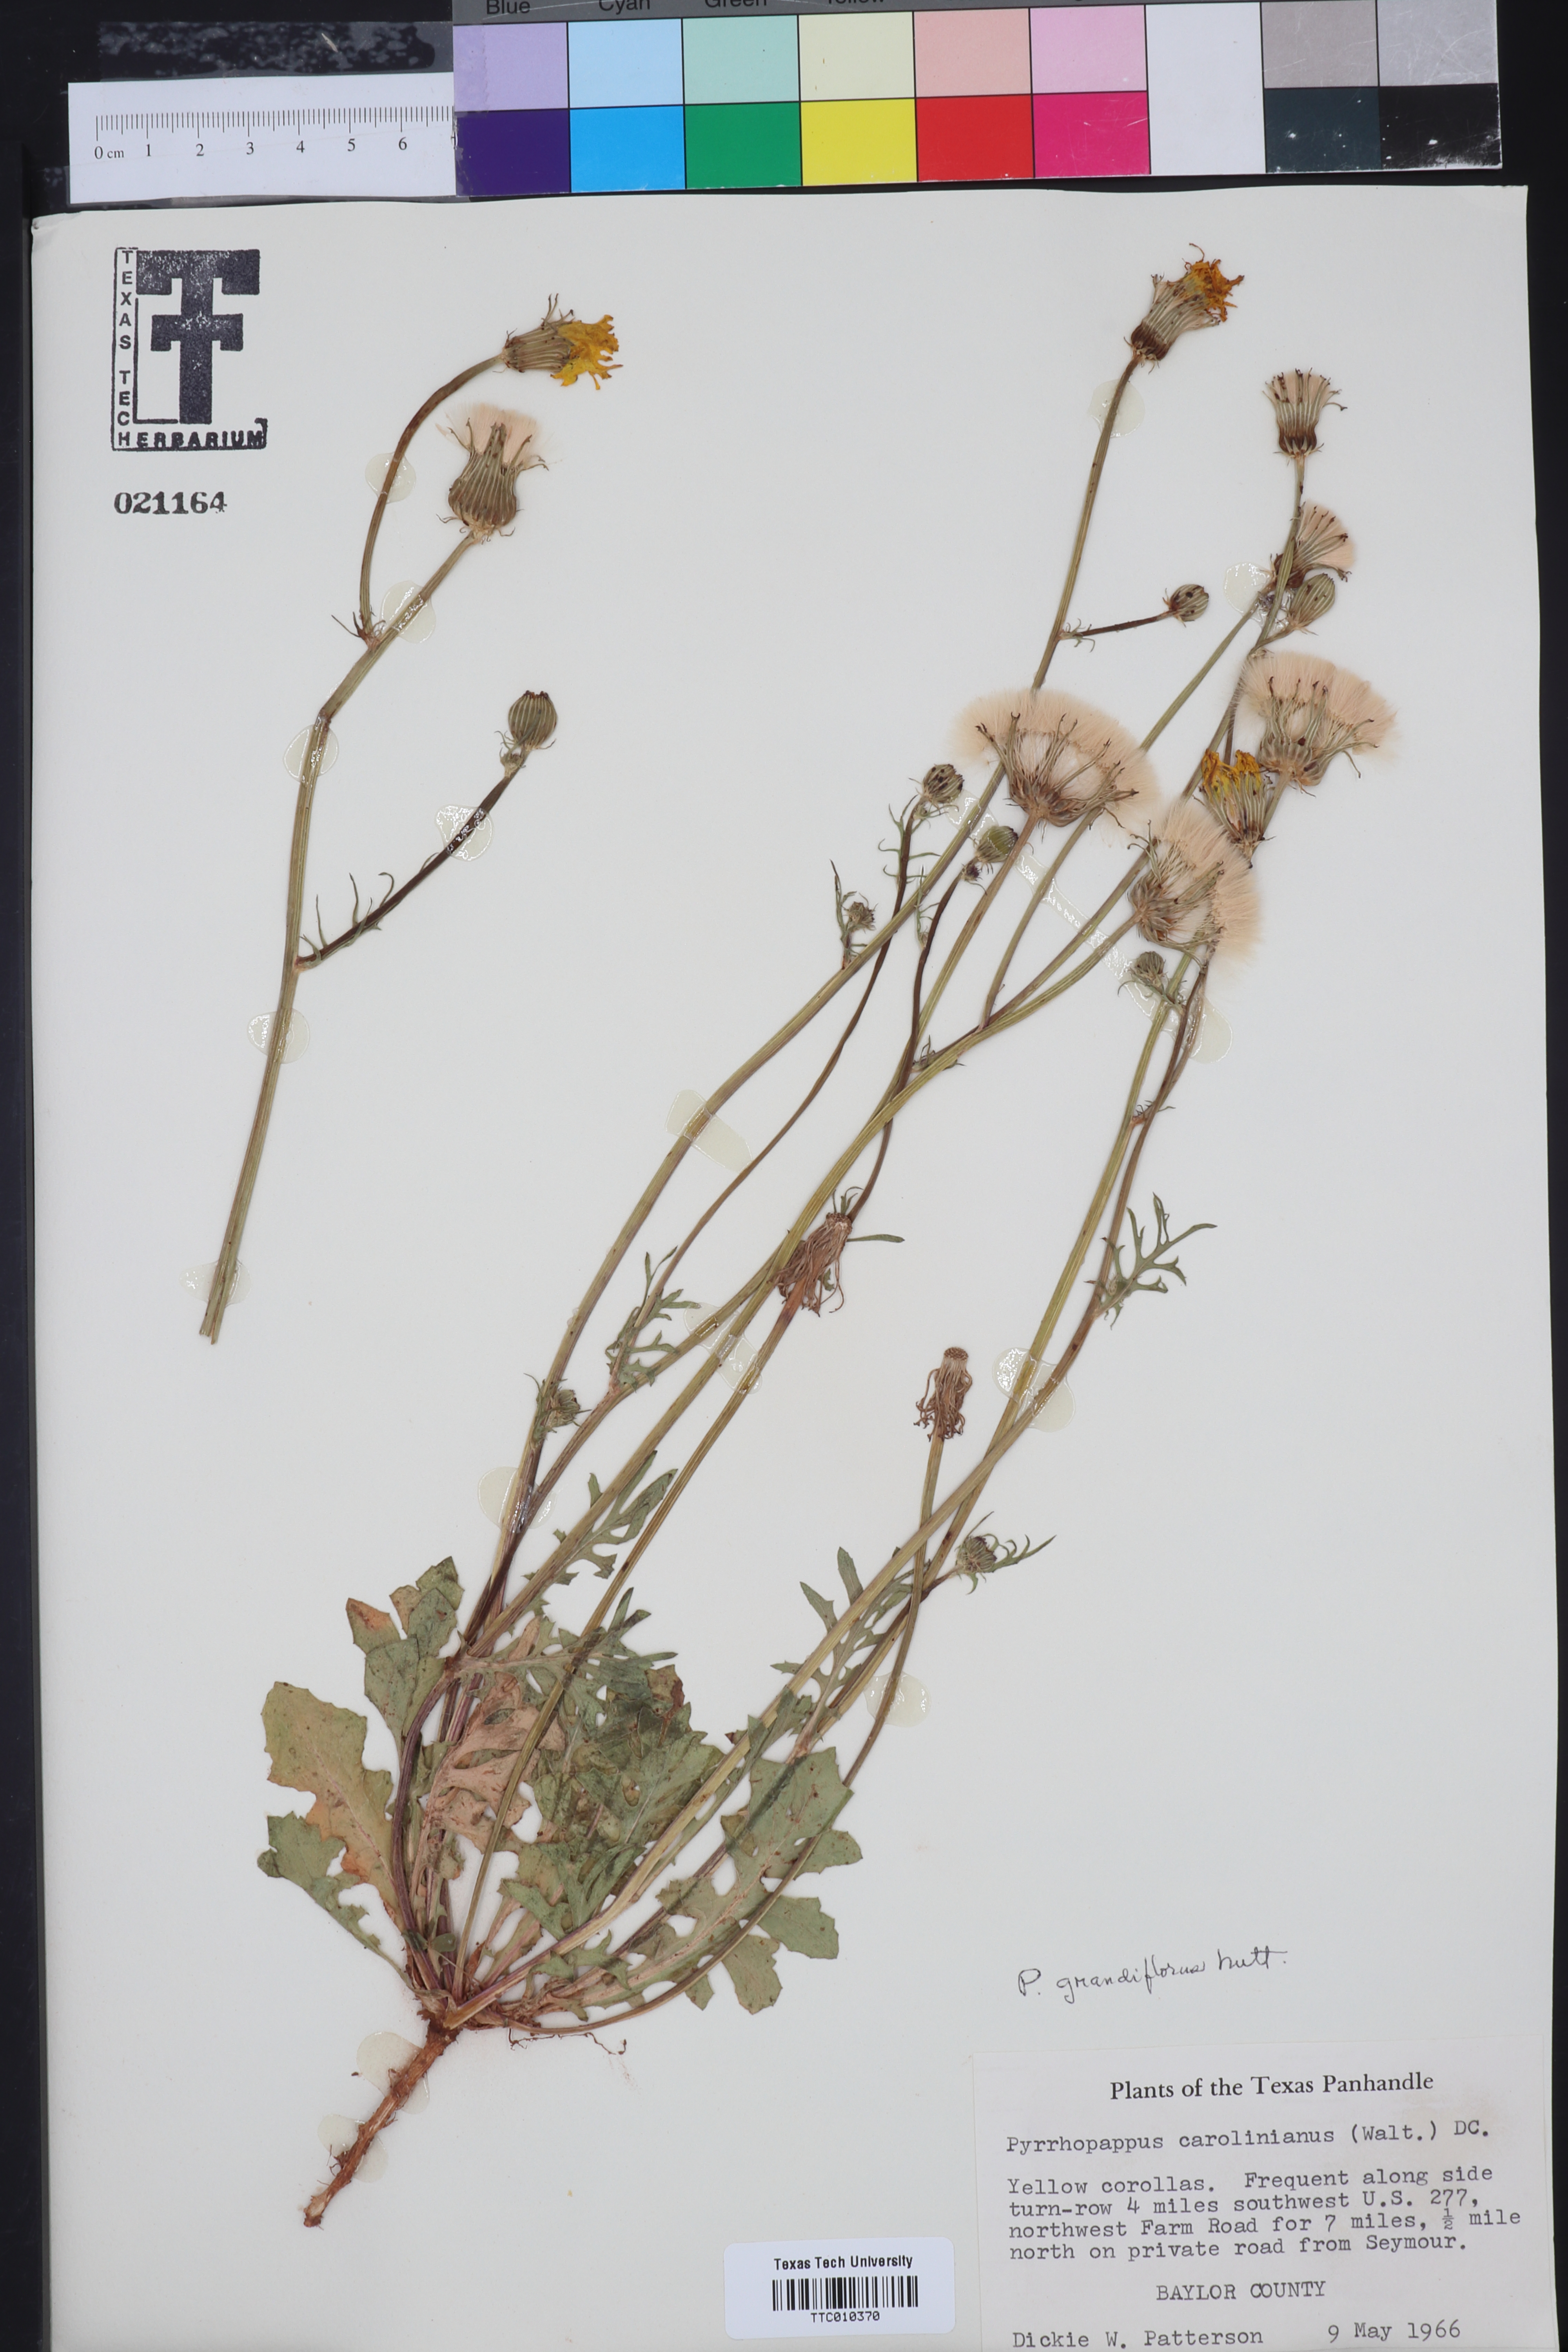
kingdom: Plantae
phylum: Tracheophyta
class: Magnoliopsida
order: Asterales
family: Asteraceae
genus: Pyrrhopappus
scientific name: Pyrrhopappus grandiflorus
